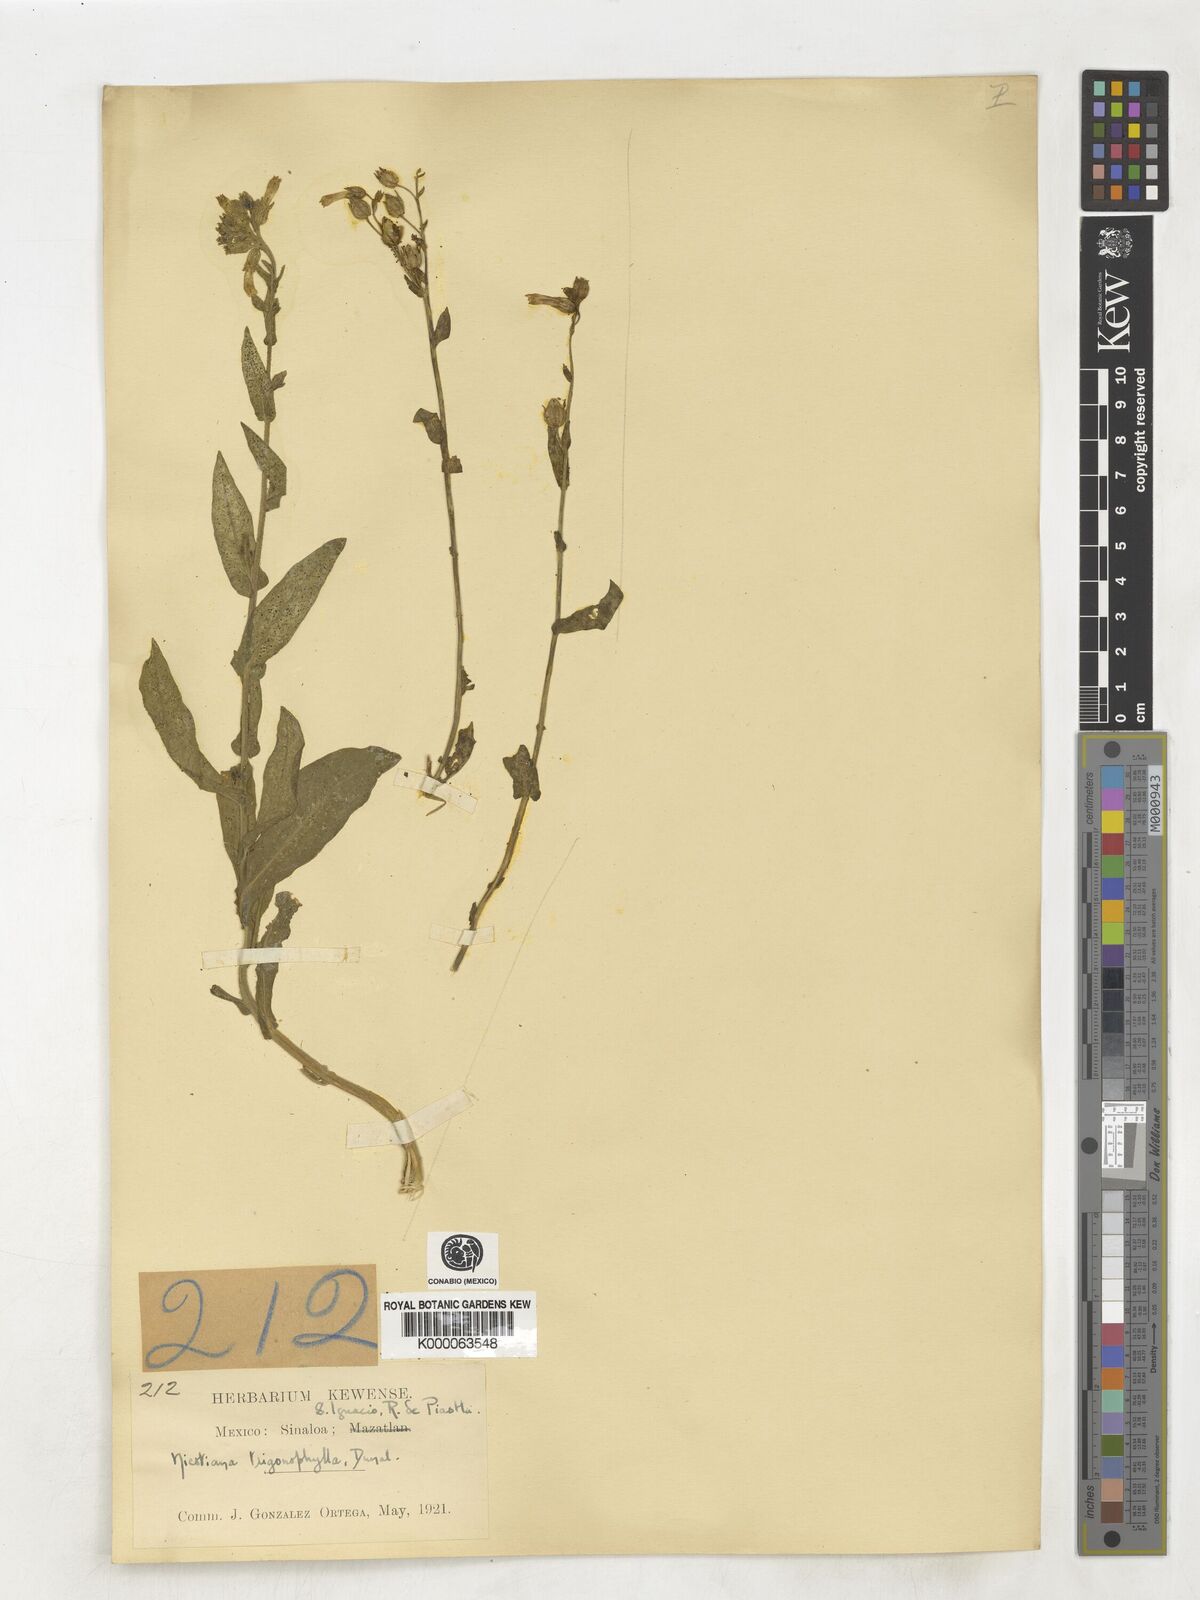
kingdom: Plantae
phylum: Tracheophyta
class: Magnoliopsida
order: Solanales
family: Solanaceae
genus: Nicotiana
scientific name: Nicotiana obtusifolia
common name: Desert tobacco
